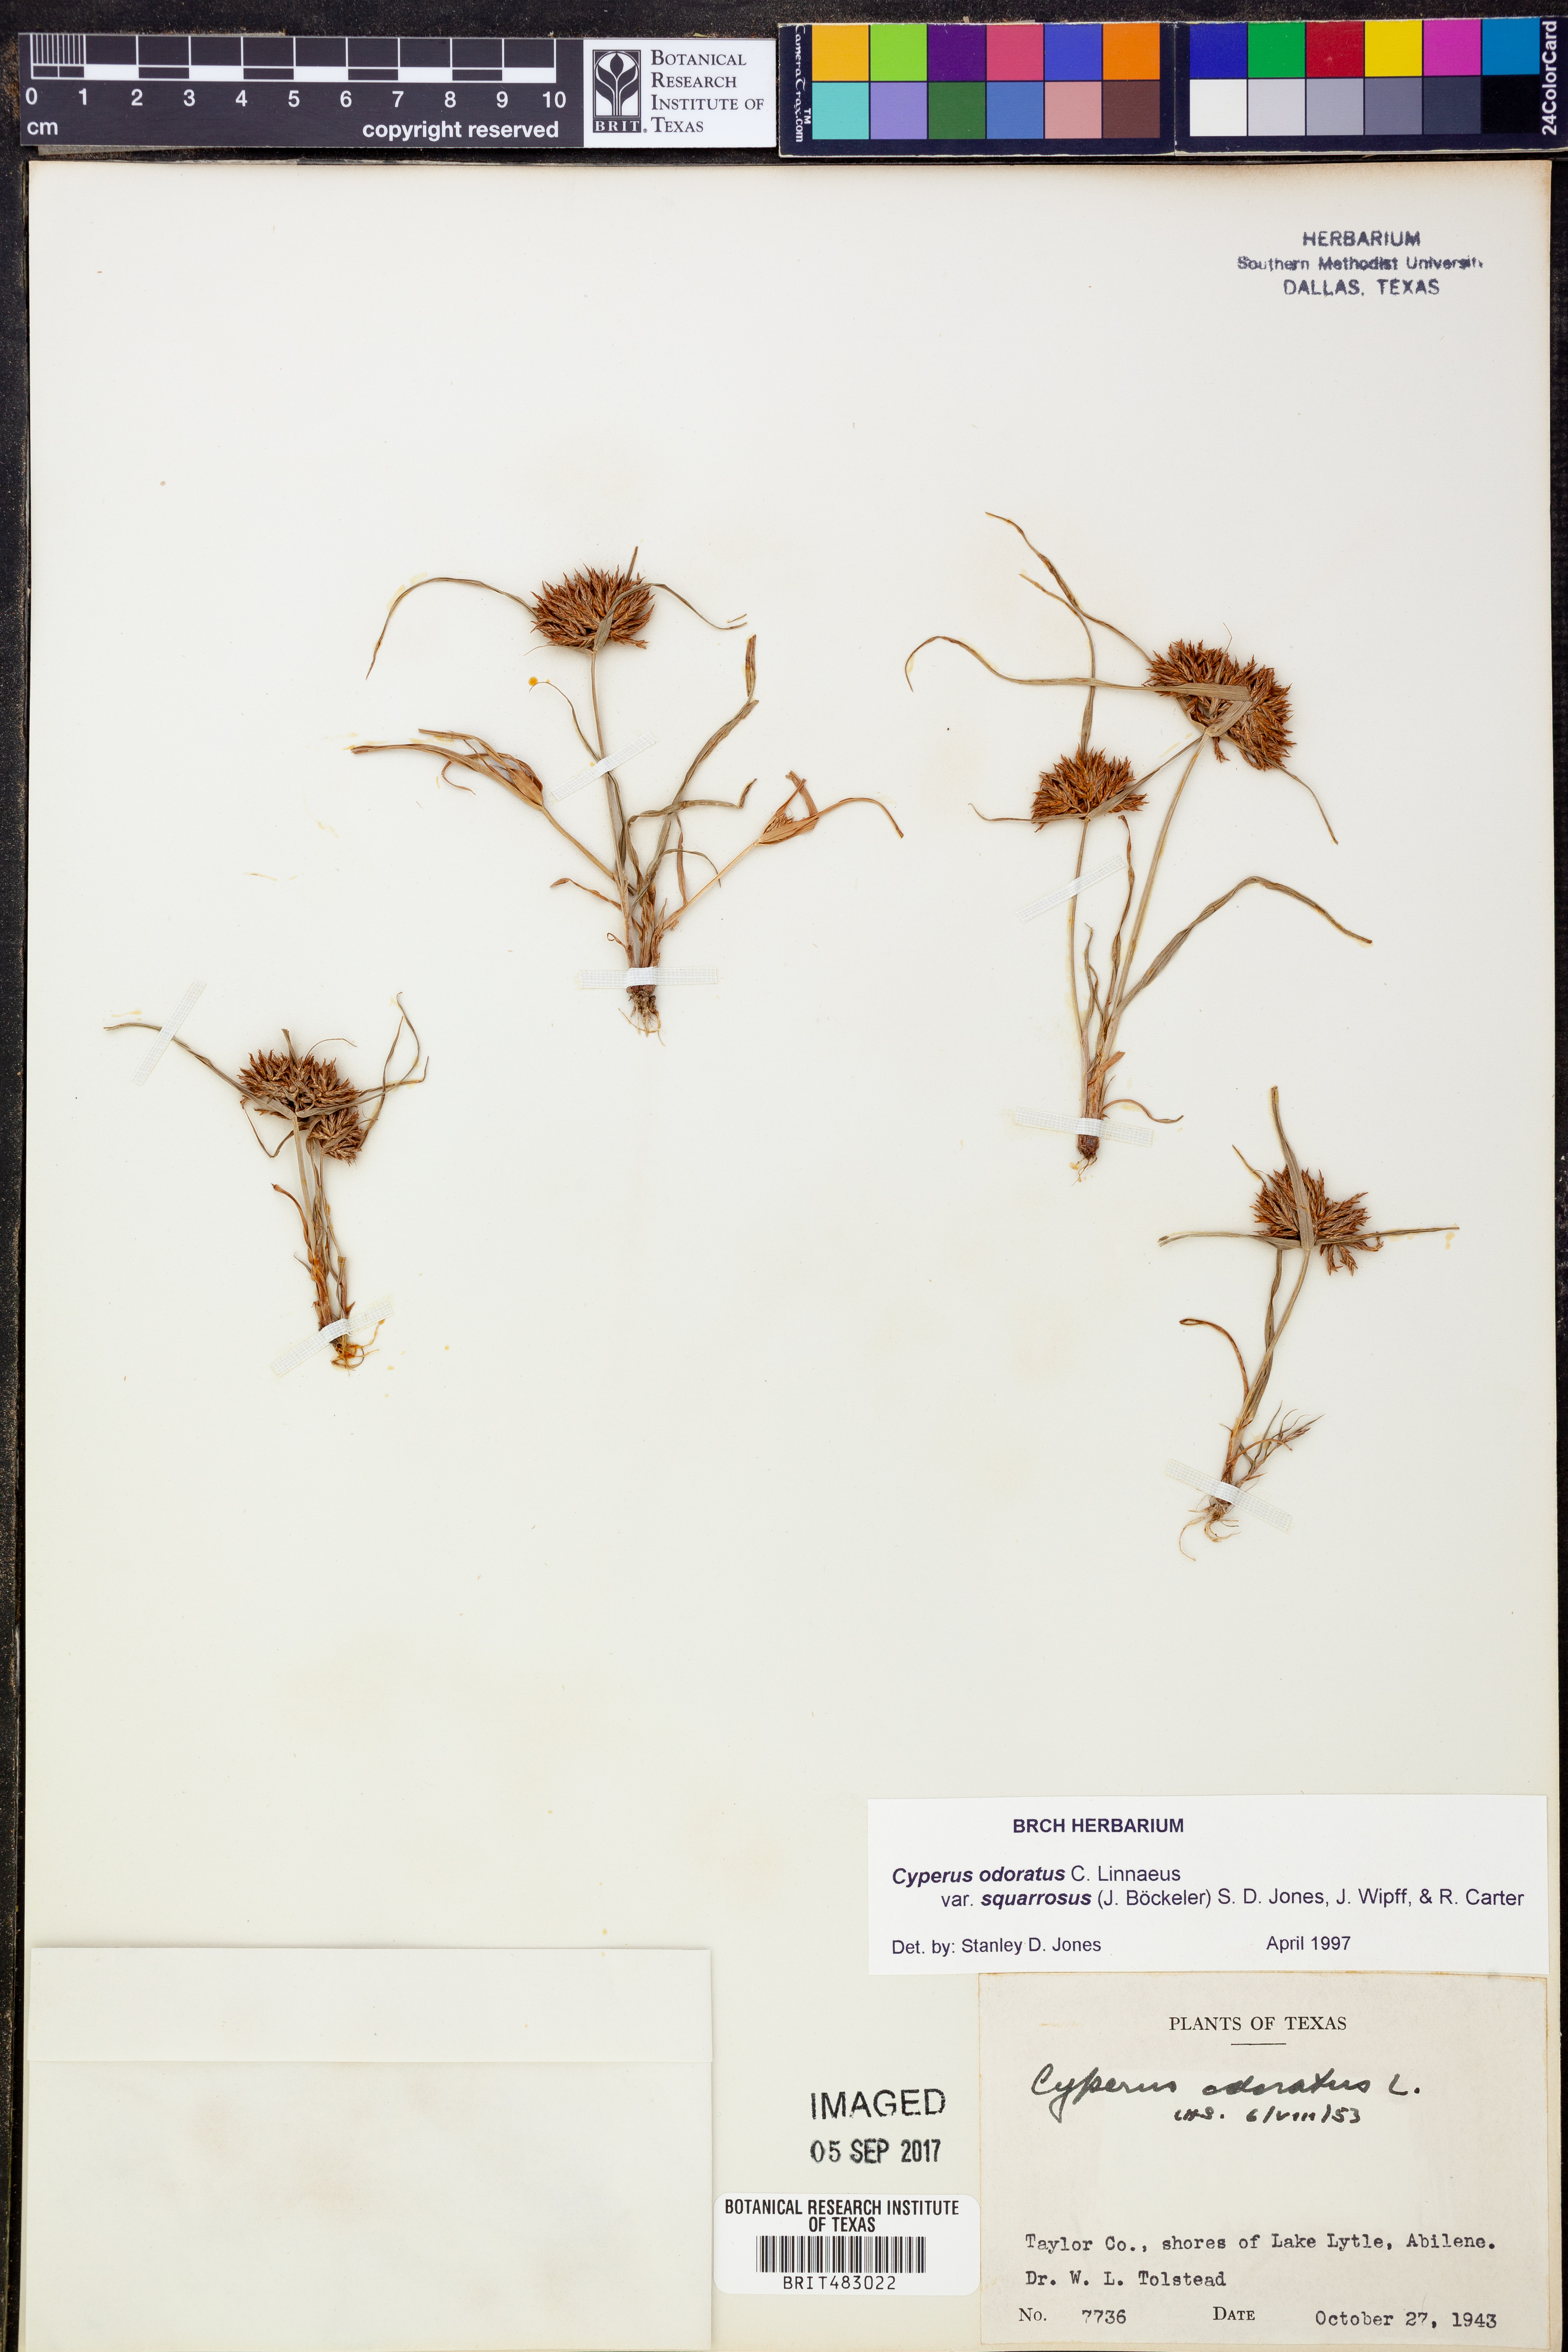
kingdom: Plantae
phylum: Tracheophyta
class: Liliopsida
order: Poales
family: Cyperaceae
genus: Cyperus
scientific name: Cyperus odoratus
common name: Fragrant flatsedge
